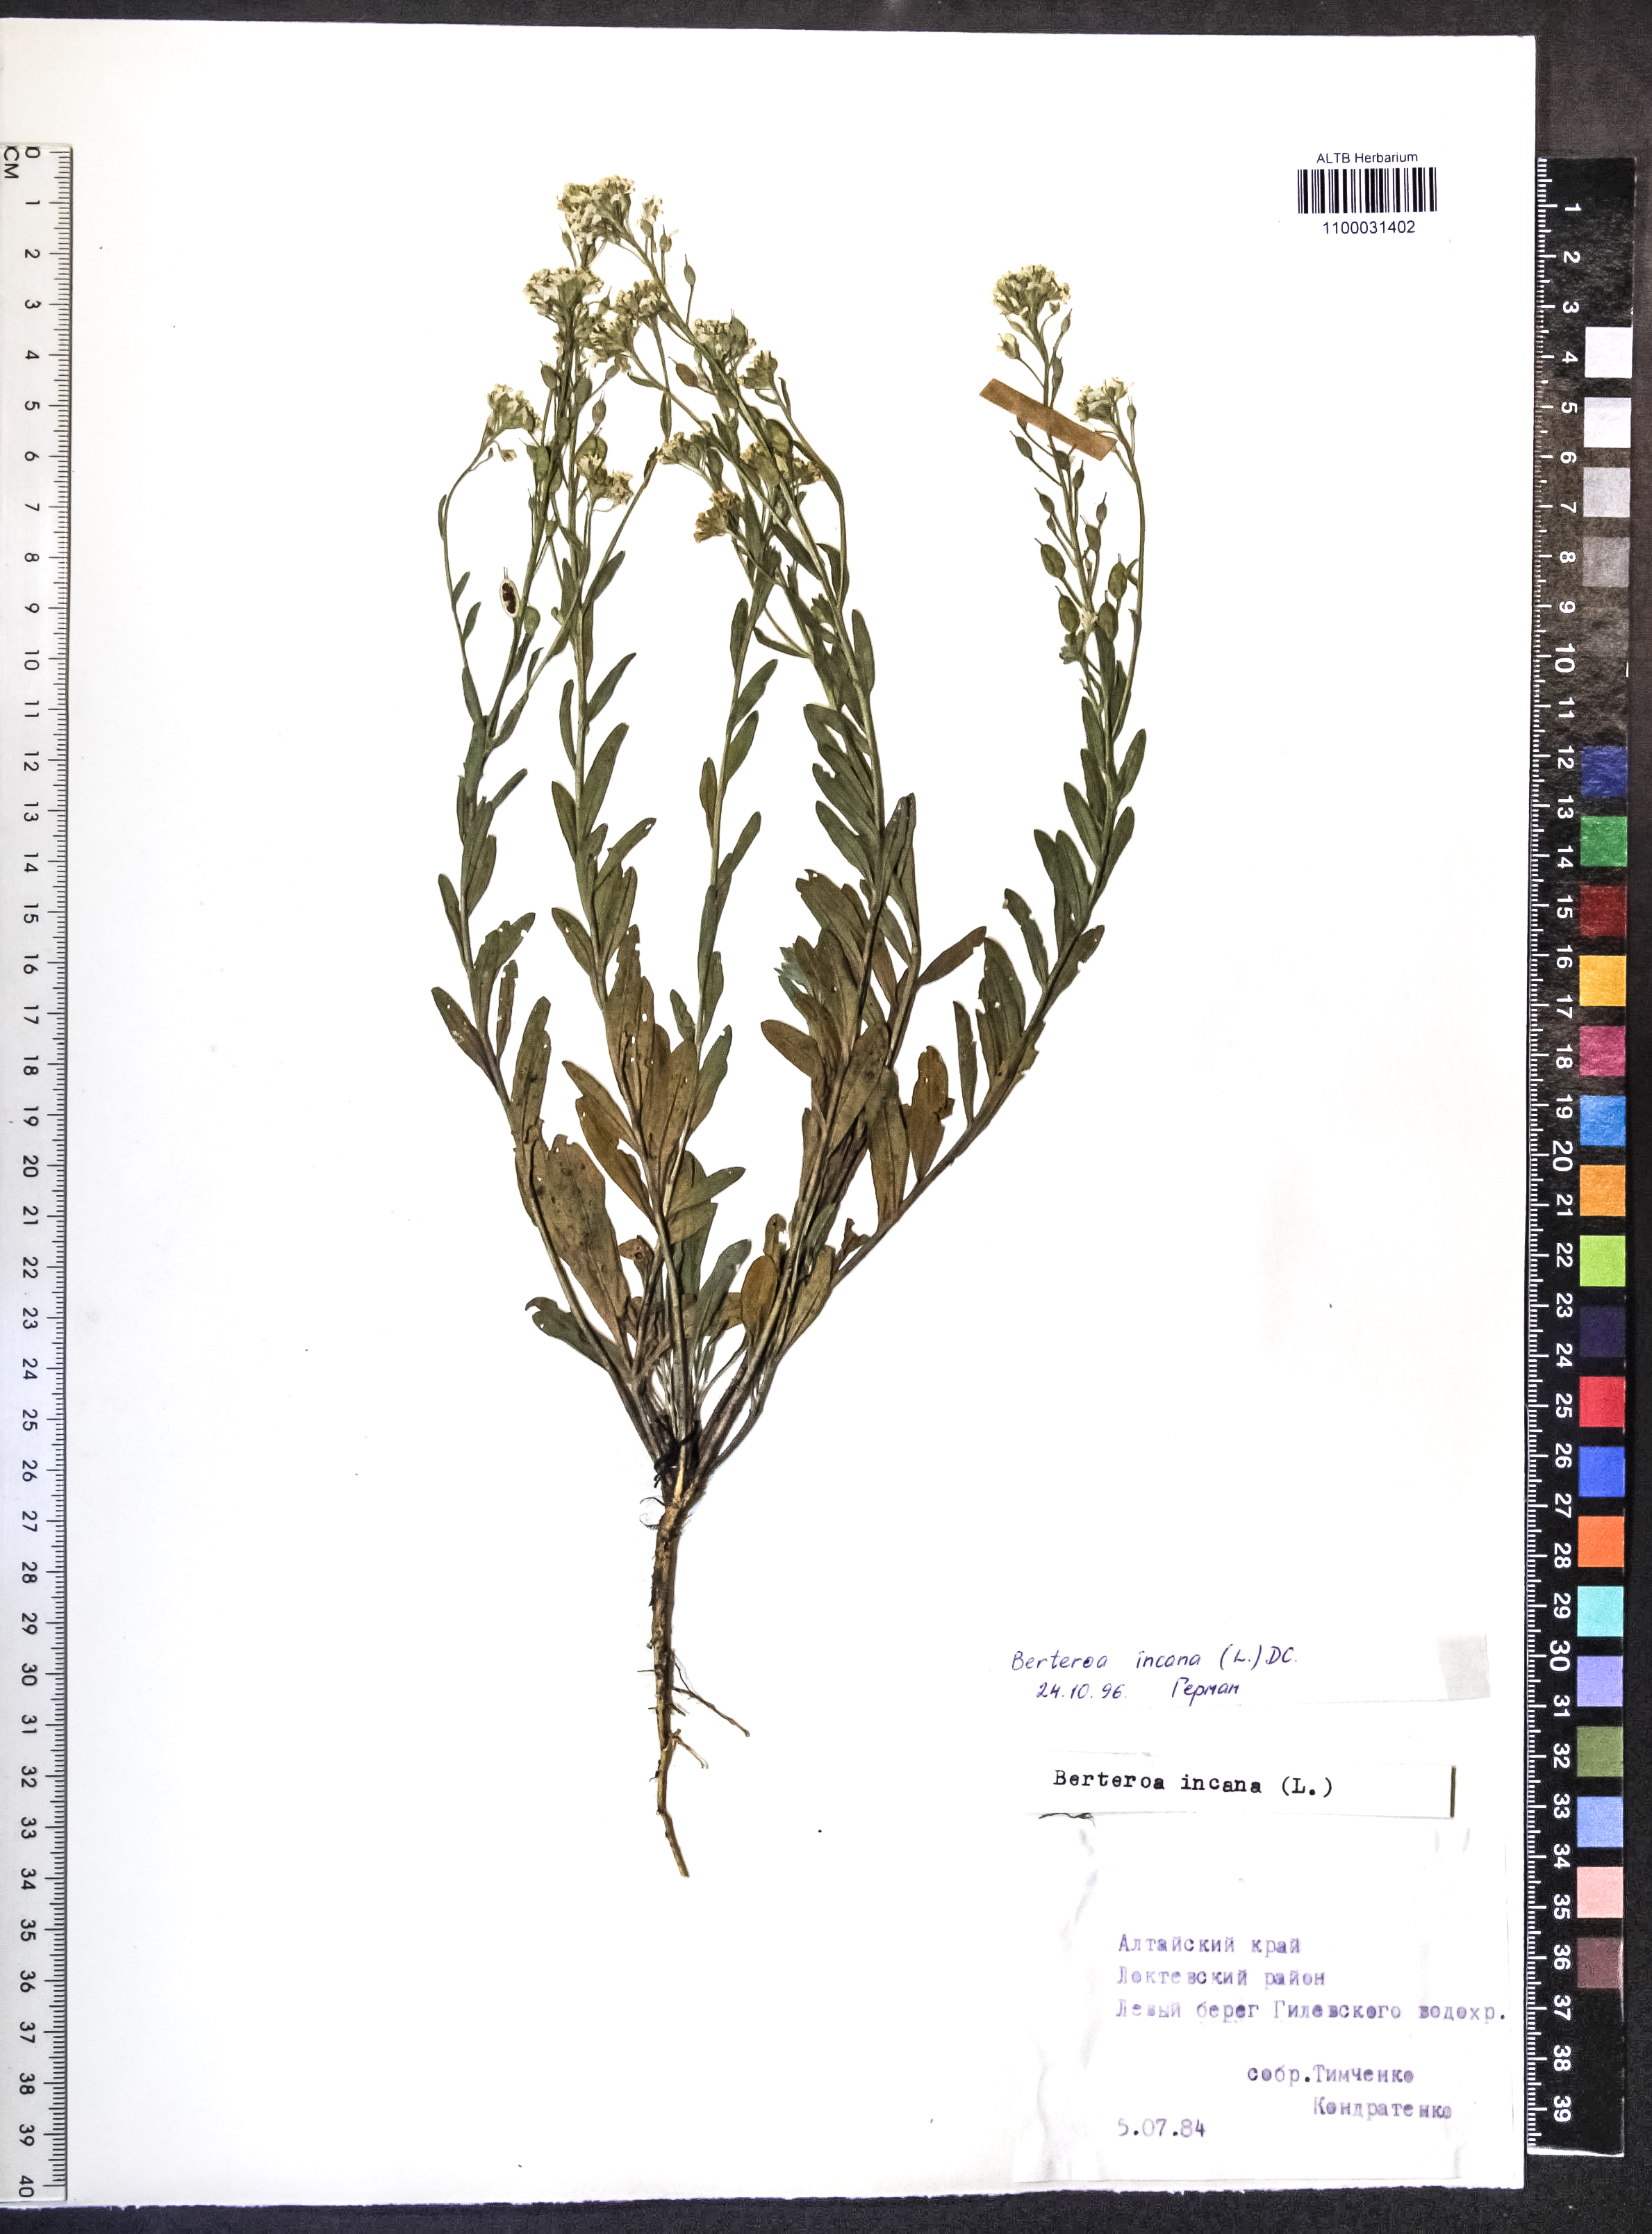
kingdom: Plantae
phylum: Tracheophyta
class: Magnoliopsida
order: Brassicales
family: Brassicaceae
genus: Berteroa
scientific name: Berteroa incana
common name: Hoary alison
